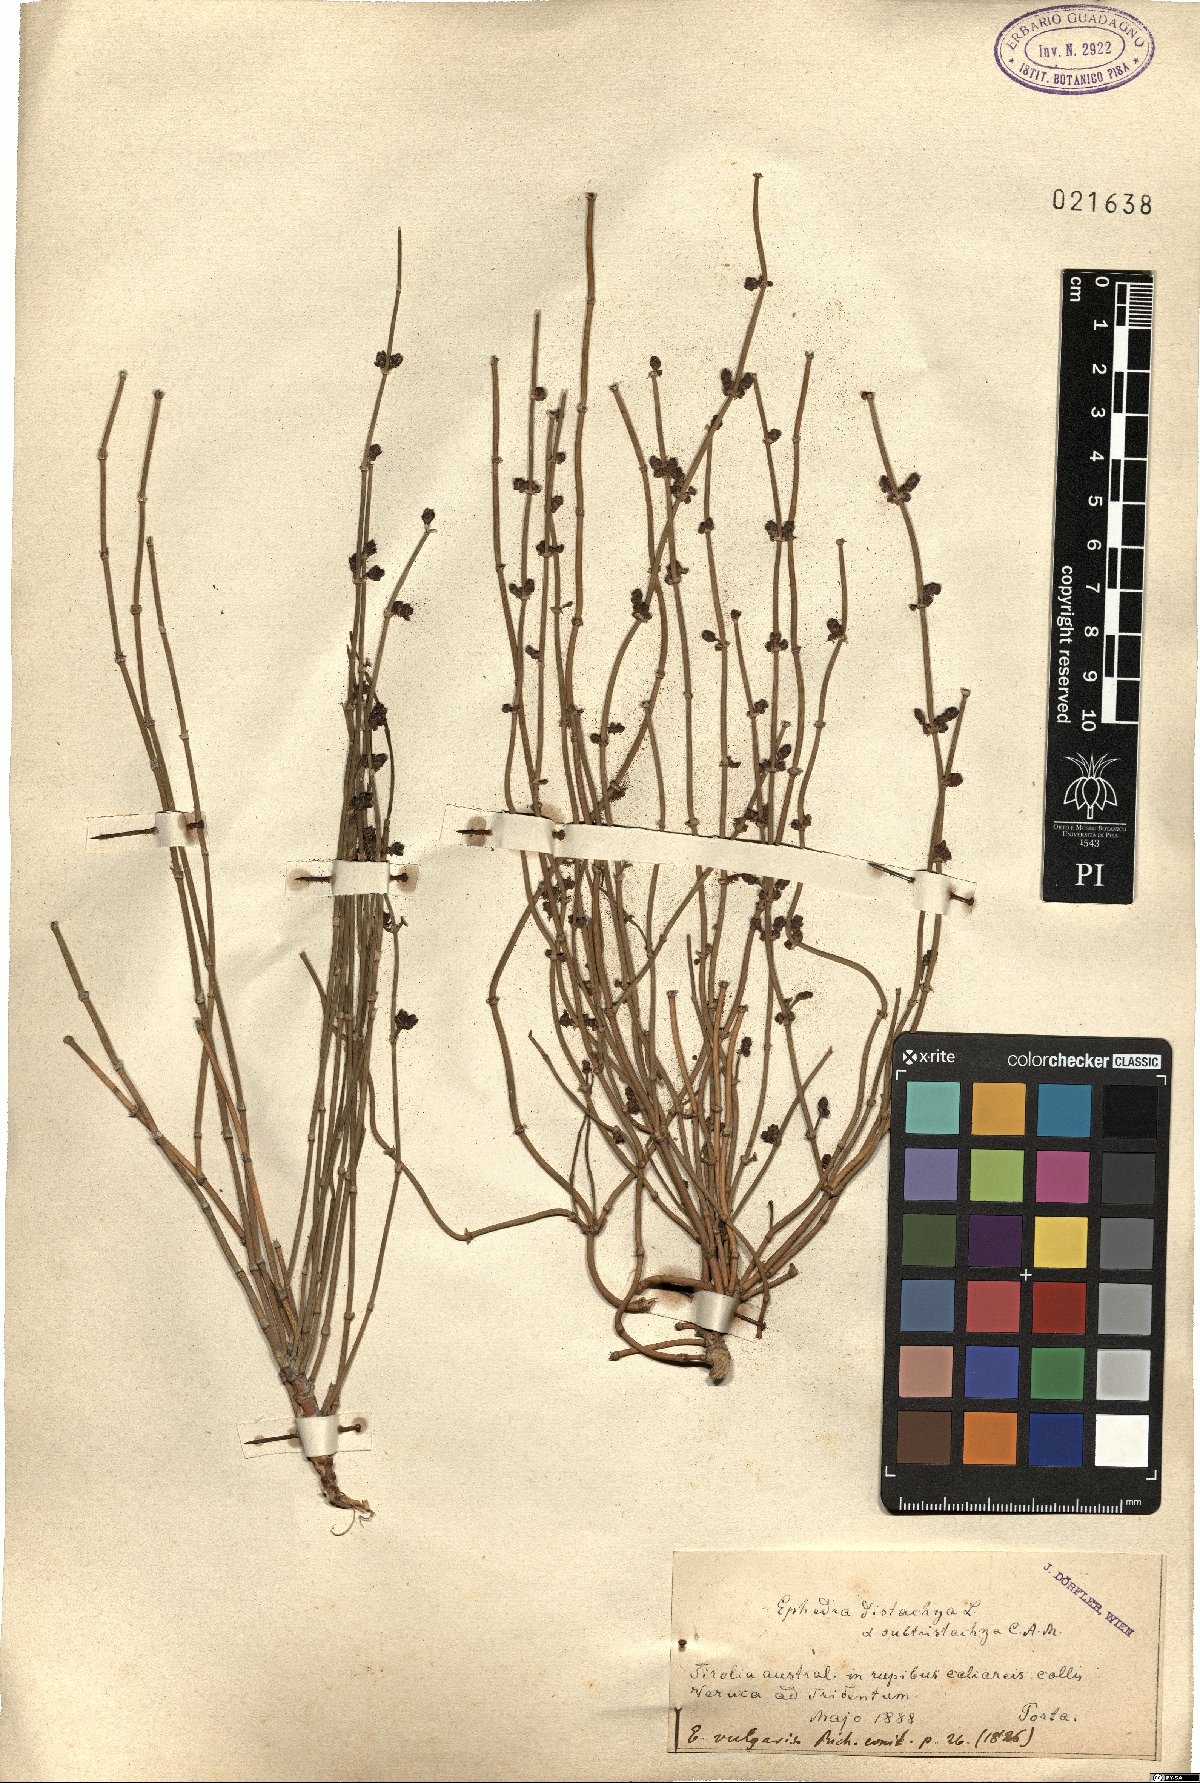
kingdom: Plantae
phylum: Tracheophyta
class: Gnetopsida
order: Ephedrales
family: Ephedraceae
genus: Ephedra
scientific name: Ephedra distachya
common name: Sea grape
